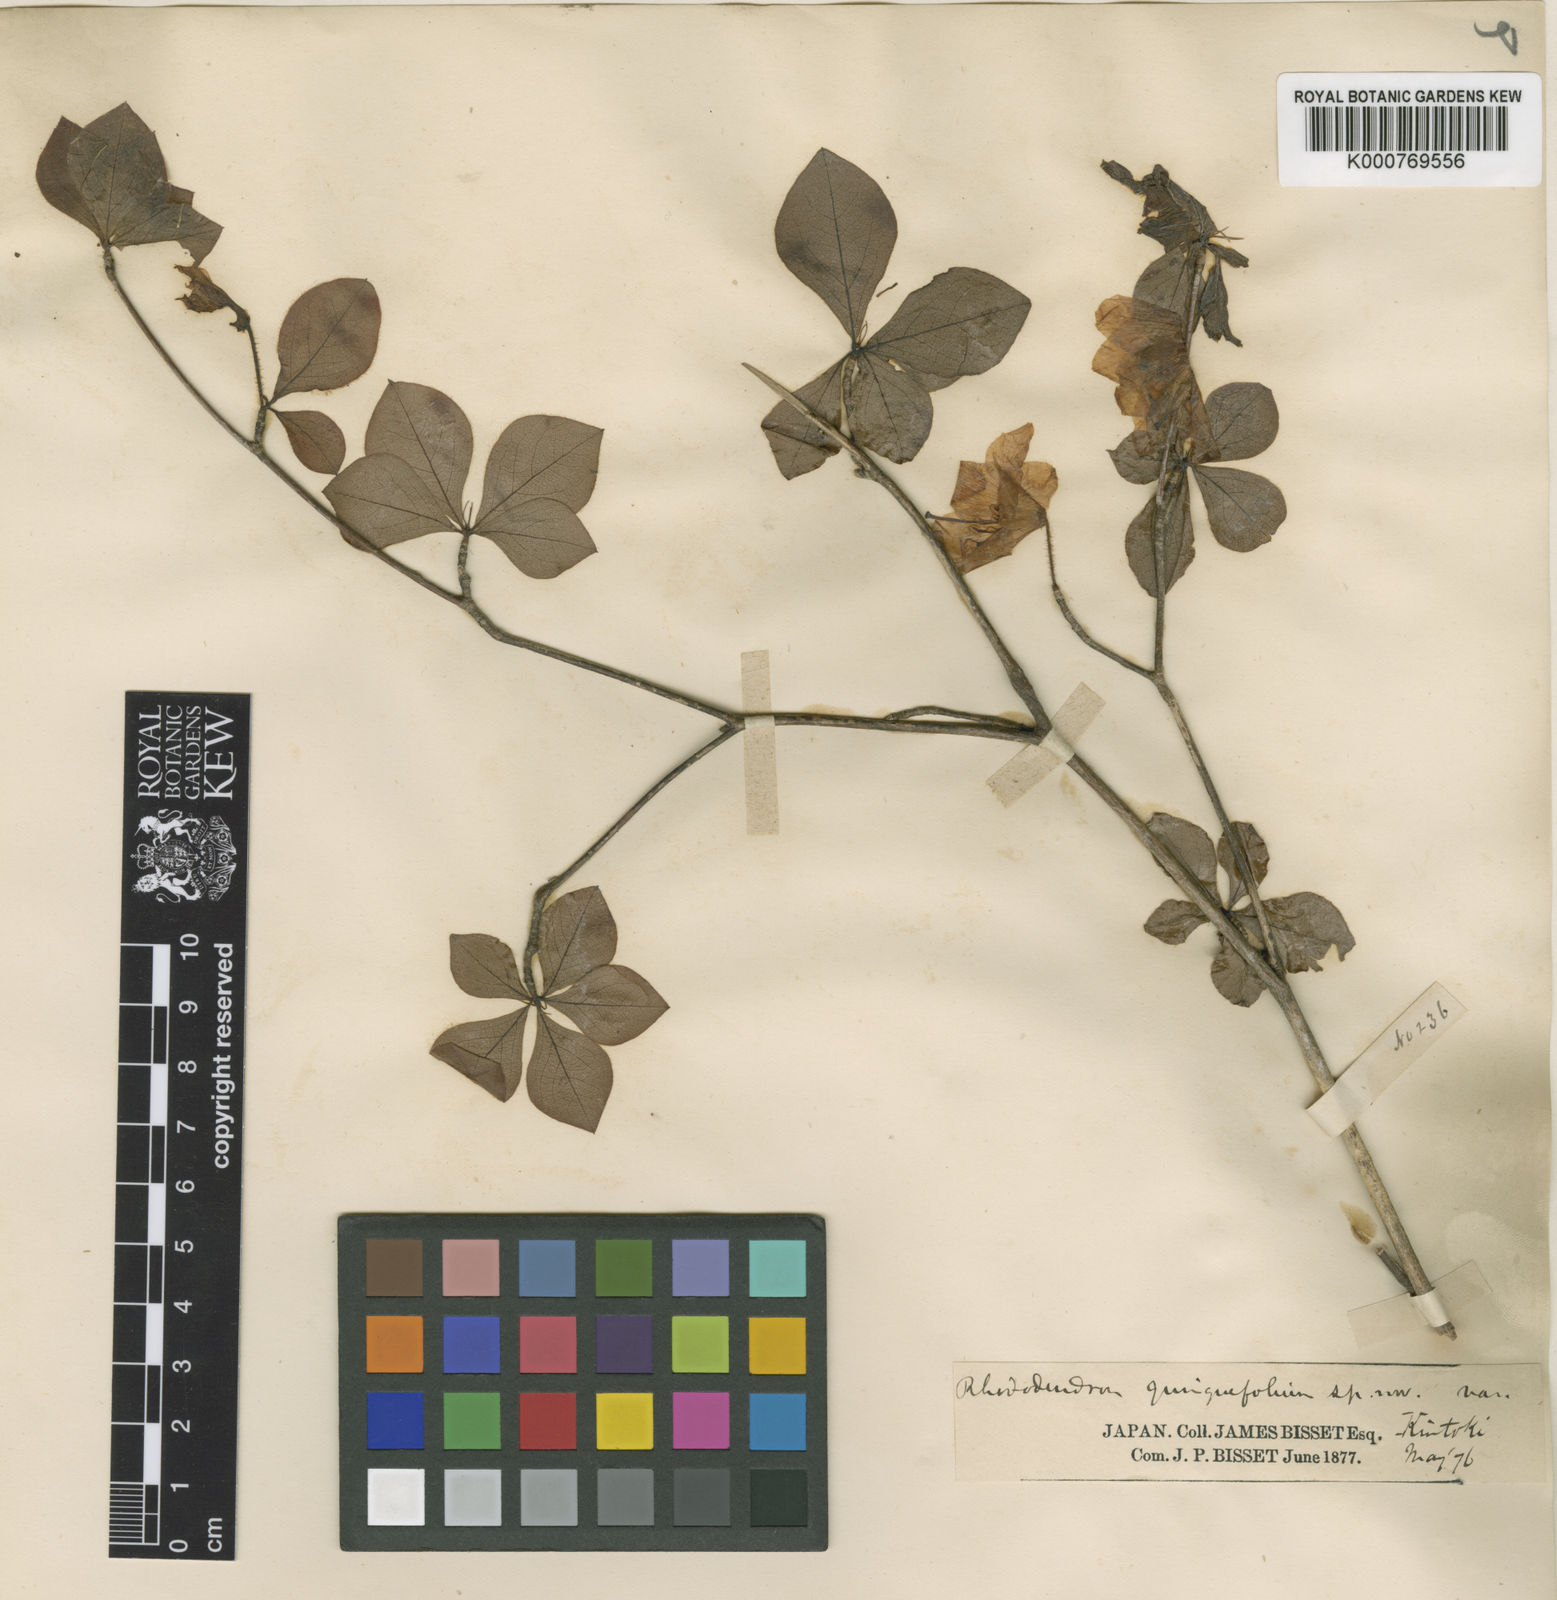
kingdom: Plantae
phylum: Tracheophyta
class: Magnoliopsida
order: Ericales
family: Ericaceae
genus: Rhododendron
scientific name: Rhododendron quinquefolium
